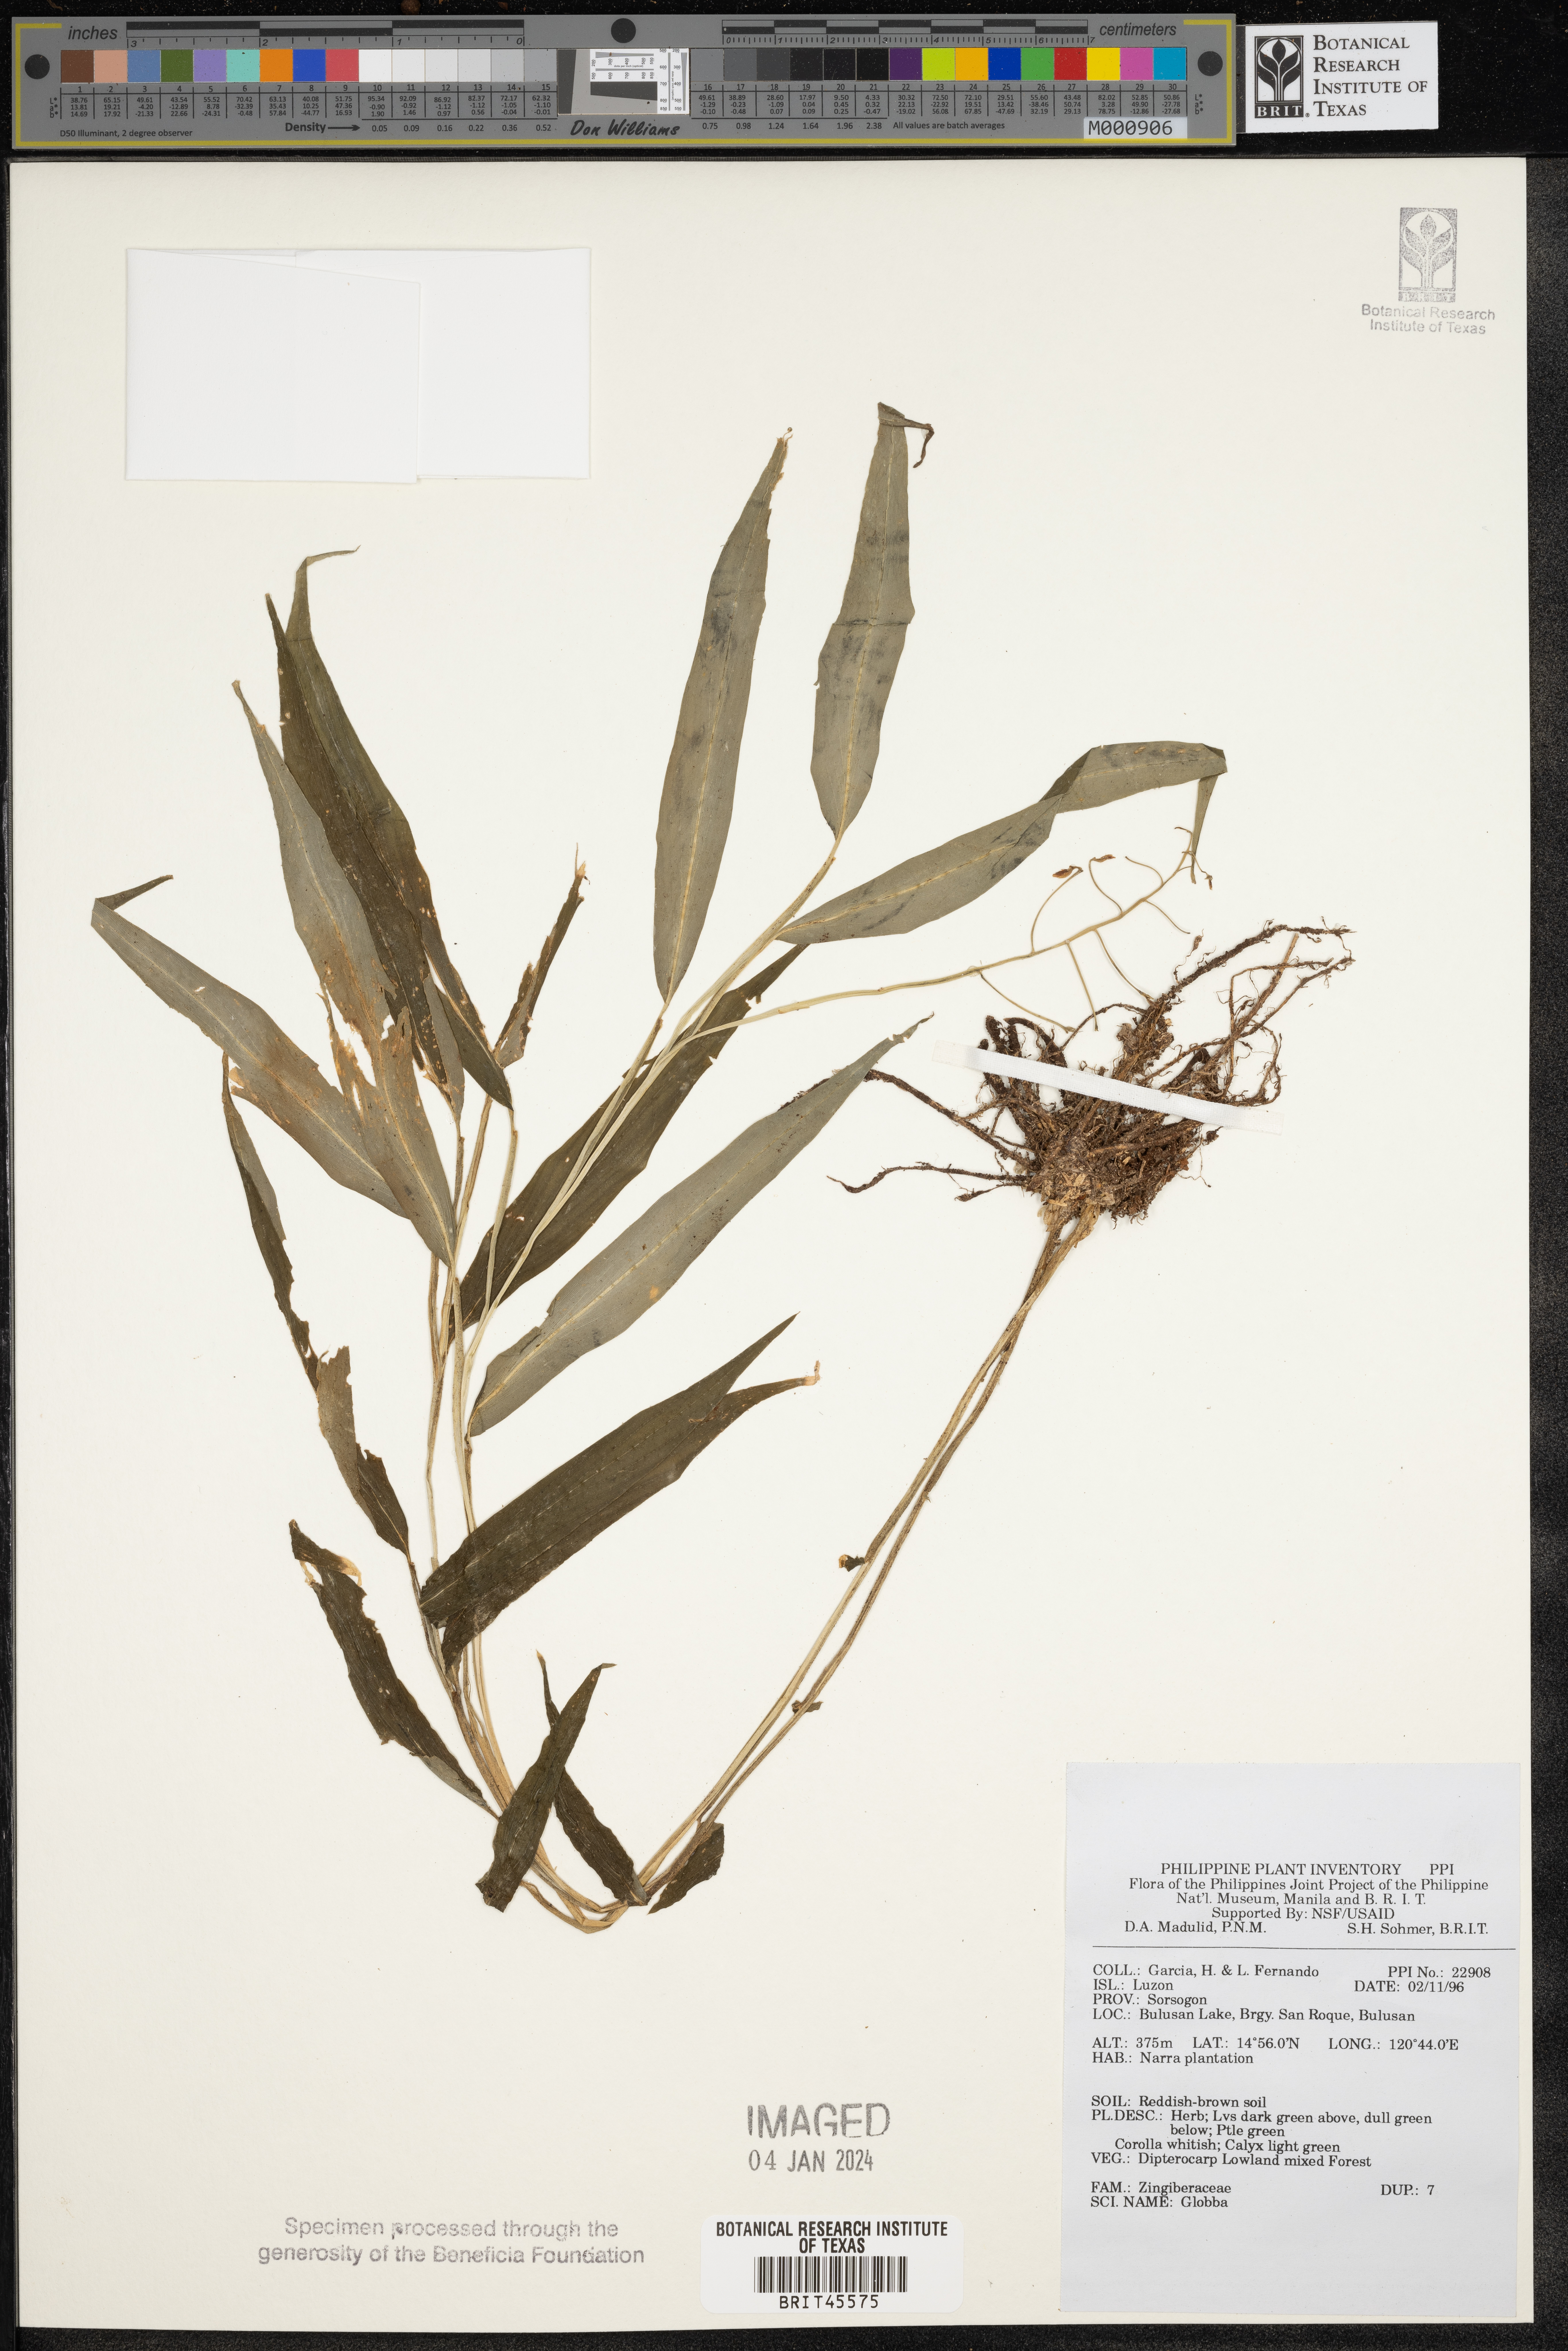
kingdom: Plantae
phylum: Tracheophyta
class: Liliopsida
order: Zingiberales
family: Zingiberaceae
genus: Globba
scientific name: Globba
